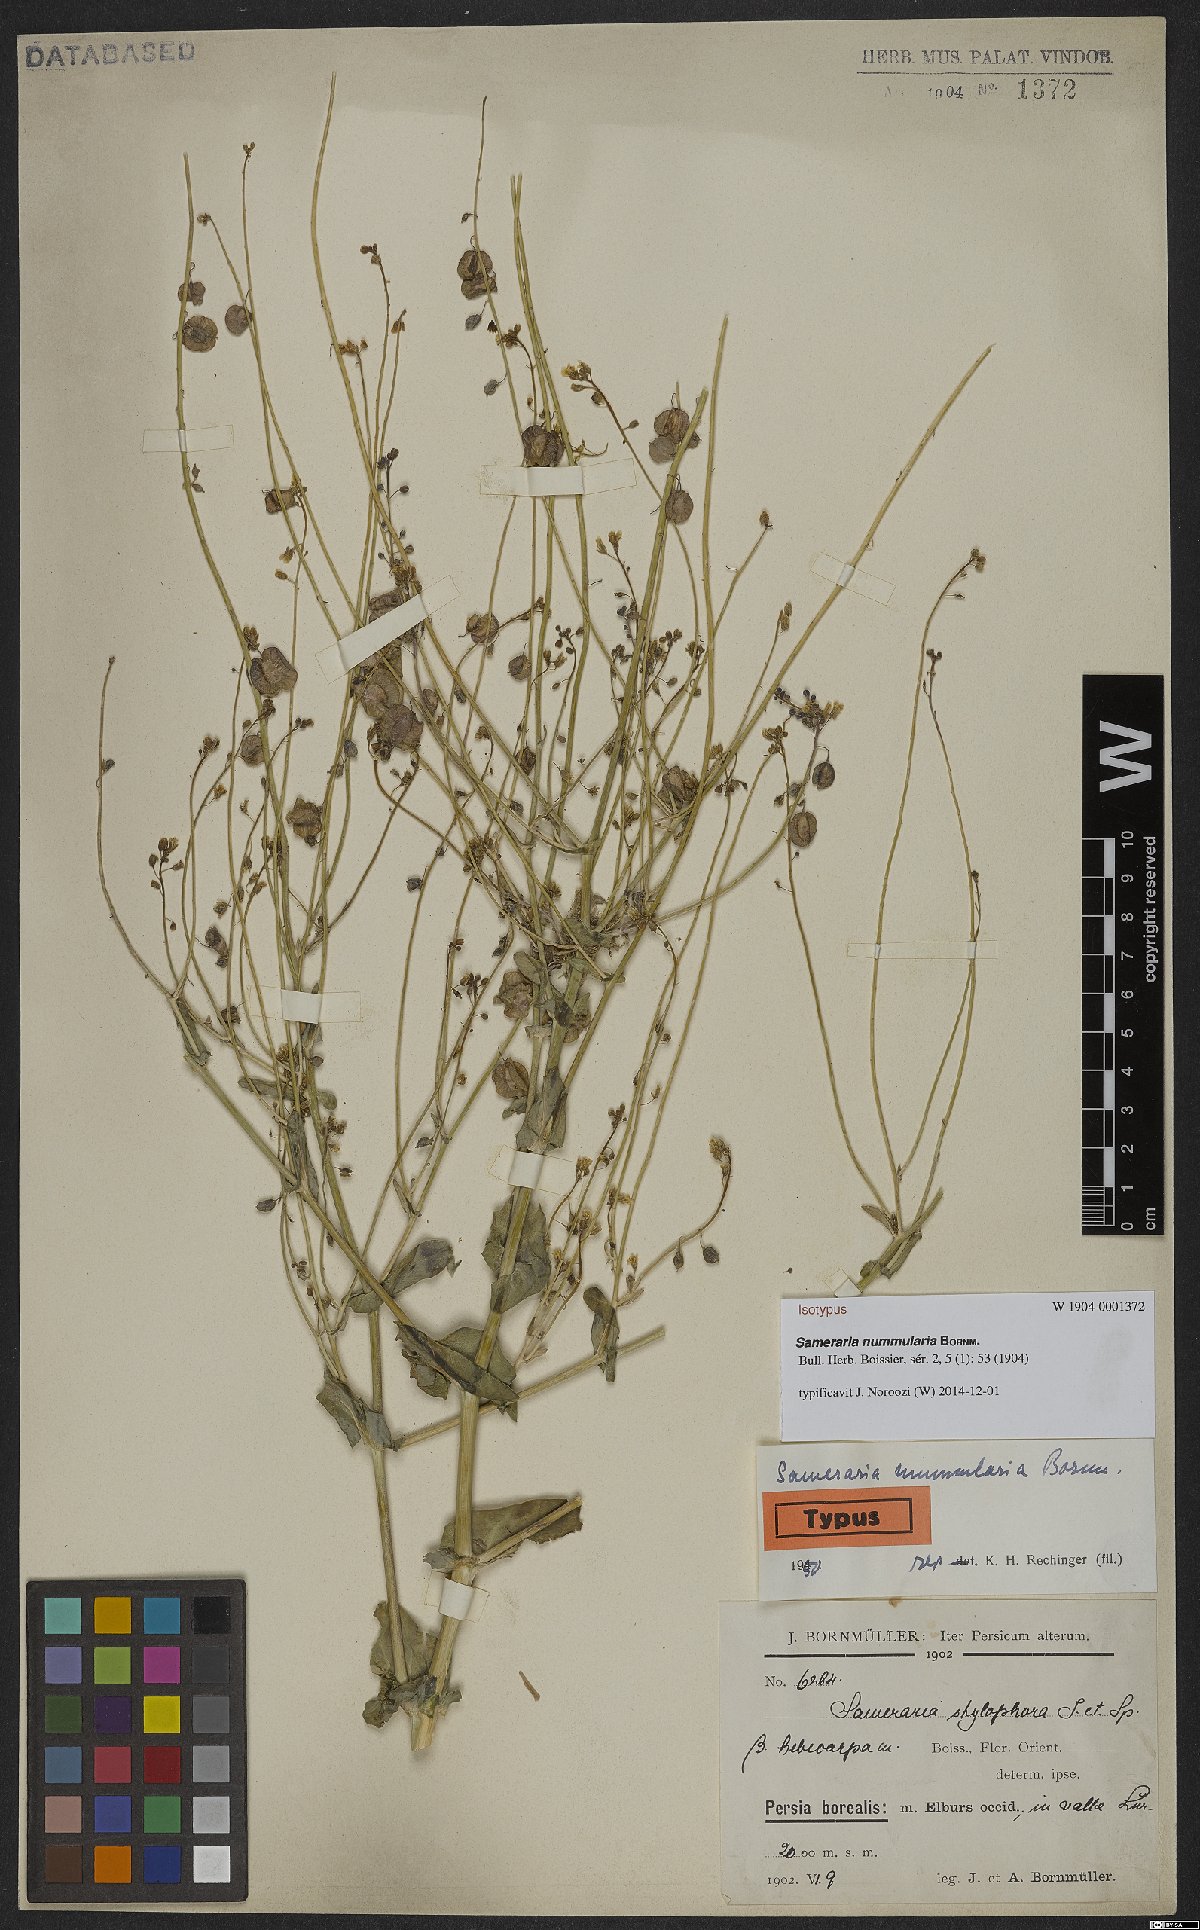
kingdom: Plantae
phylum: Tracheophyta
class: Magnoliopsida
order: Brassicales
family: Brassicaceae
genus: Isatis
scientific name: Isatis zarrei
